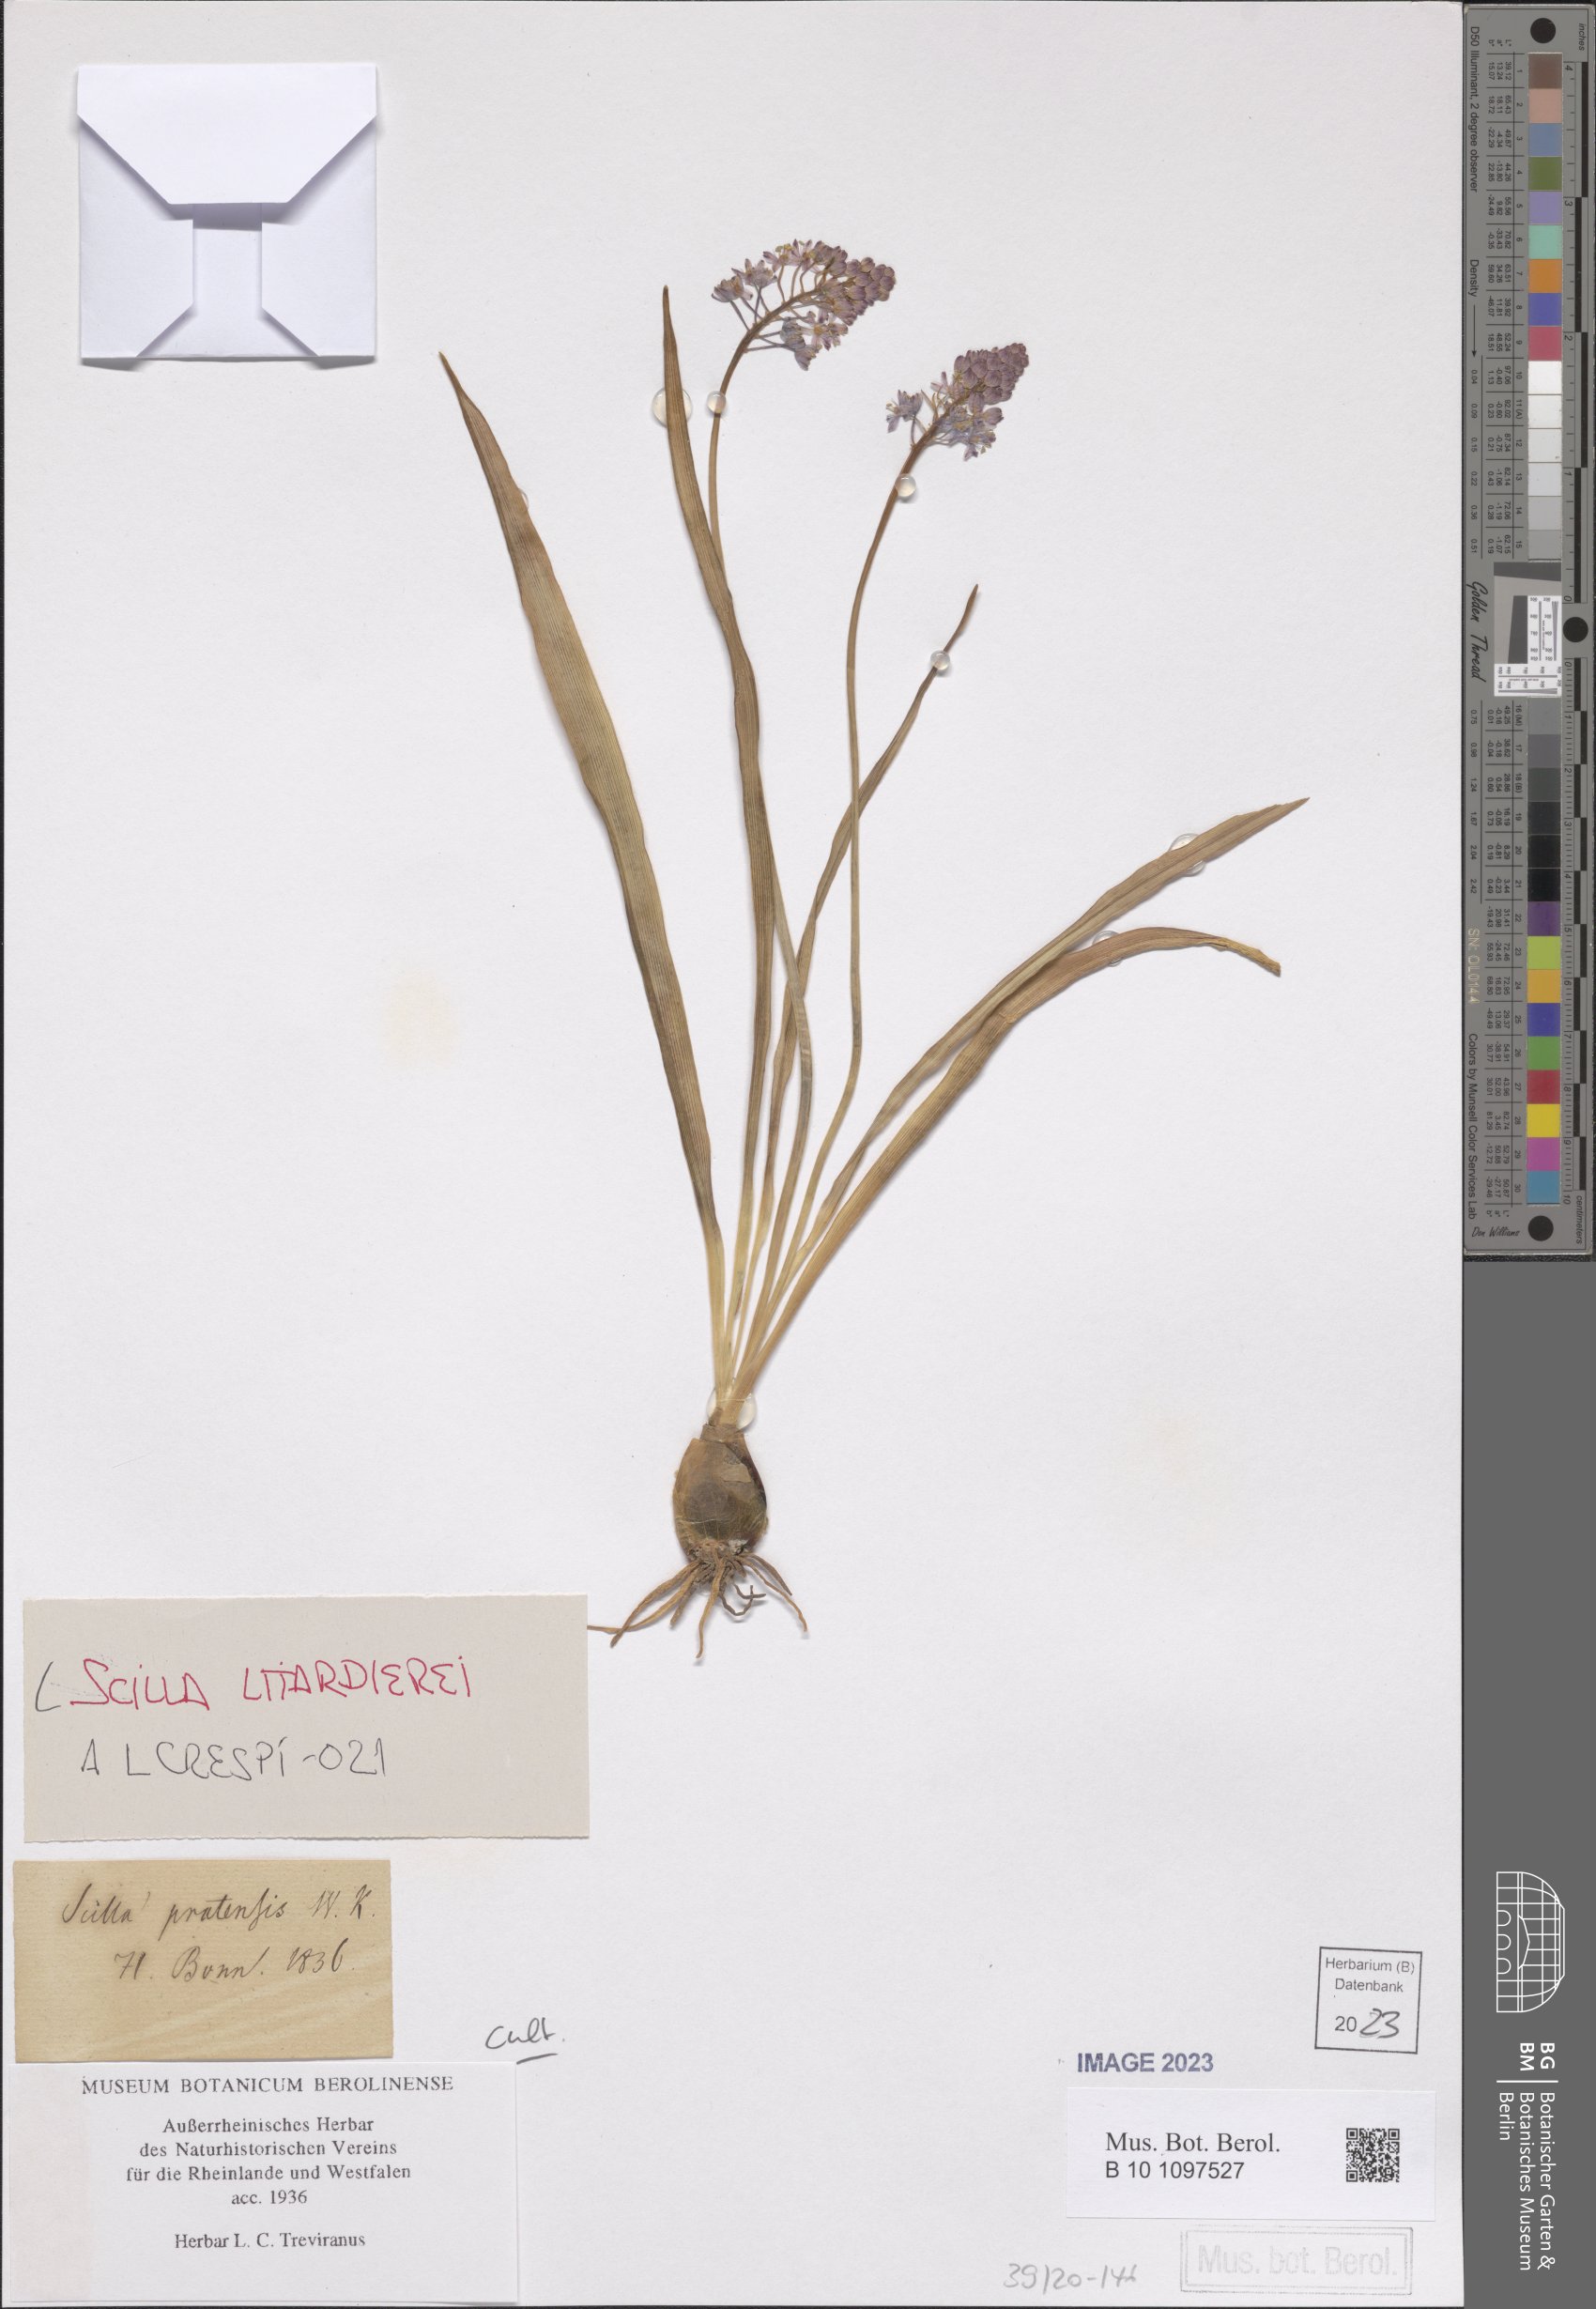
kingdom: Plantae
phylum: Tracheophyta
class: Liliopsida
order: Asparagales
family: Asparagaceae
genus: Scilla
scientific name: Scilla litardierei
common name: Amethyst meadow squill
